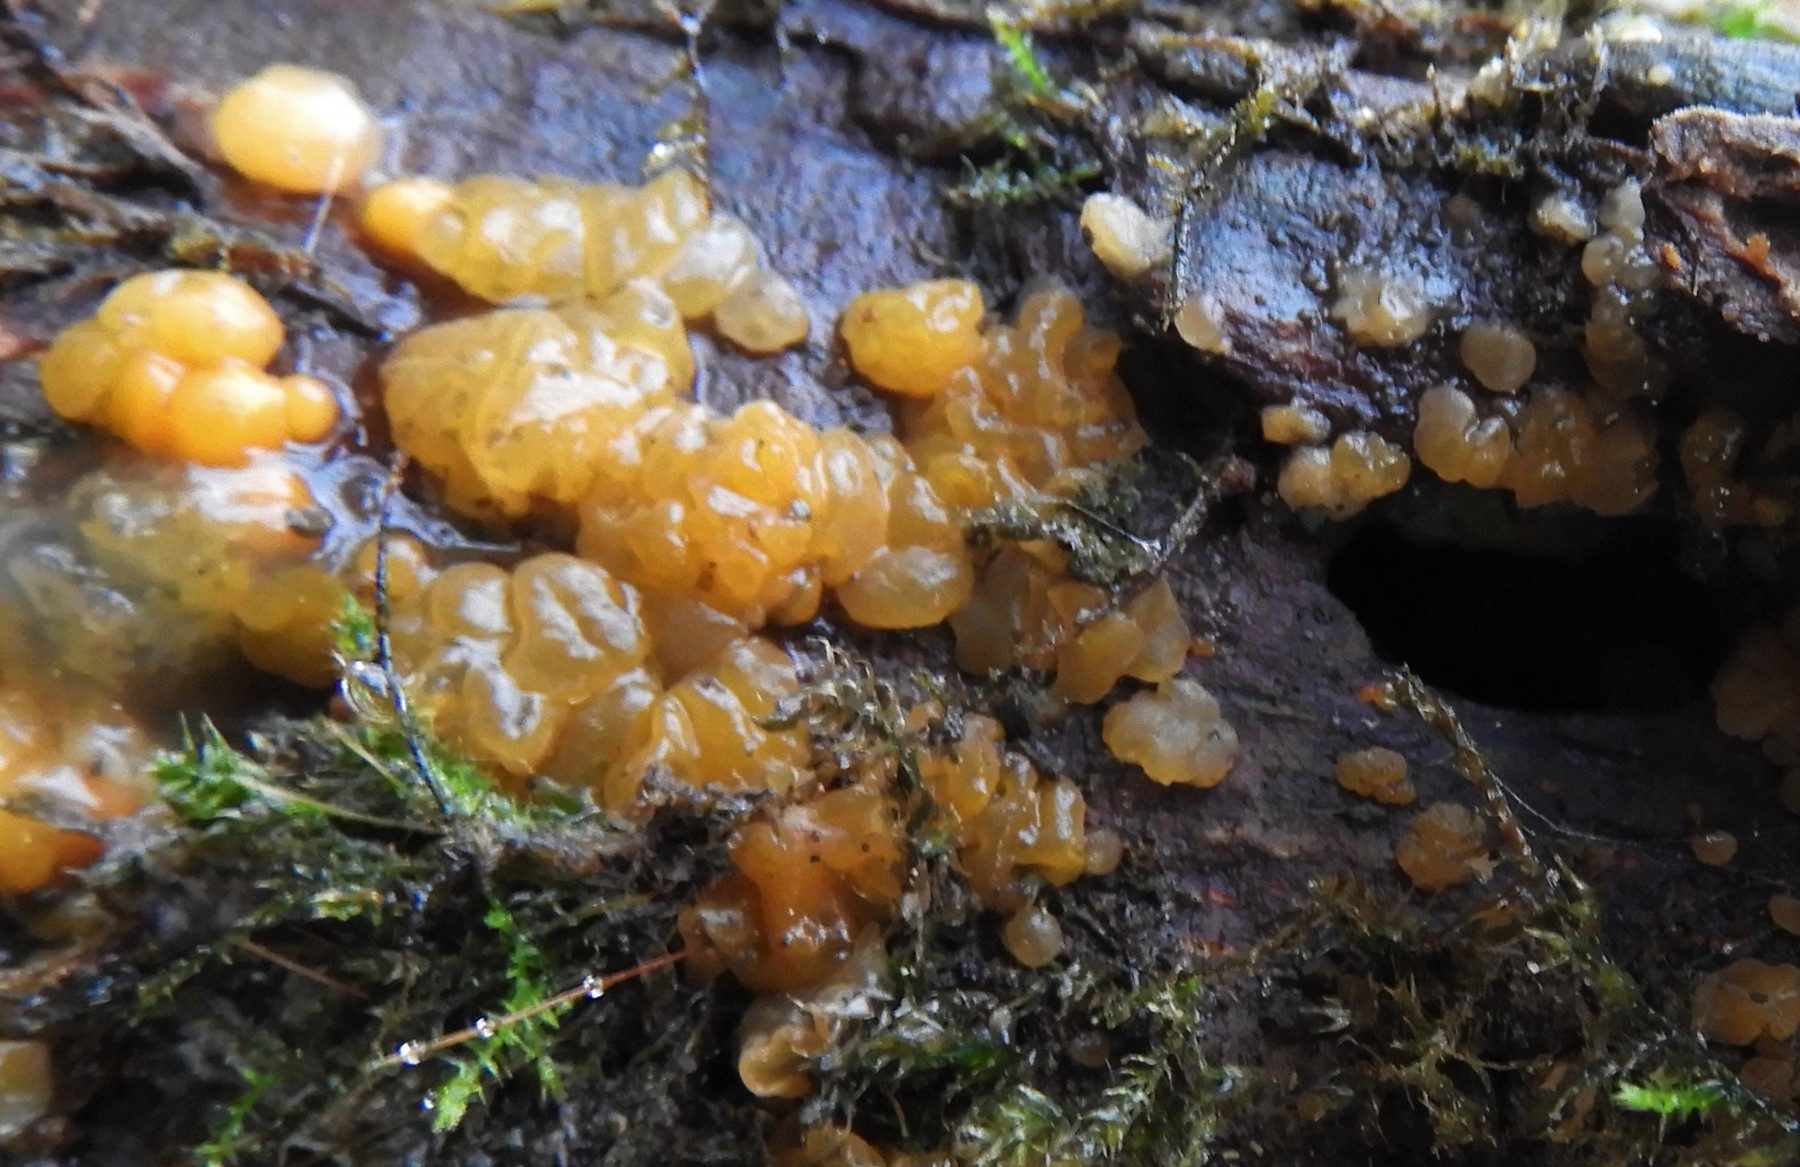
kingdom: Fungi
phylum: Basidiomycota
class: Dacrymycetes
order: Dacrymycetales
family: Dacrymycetaceae
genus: Dacrymyces
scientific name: Dacrymyces lacrymalis
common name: rynket tåresvamp
